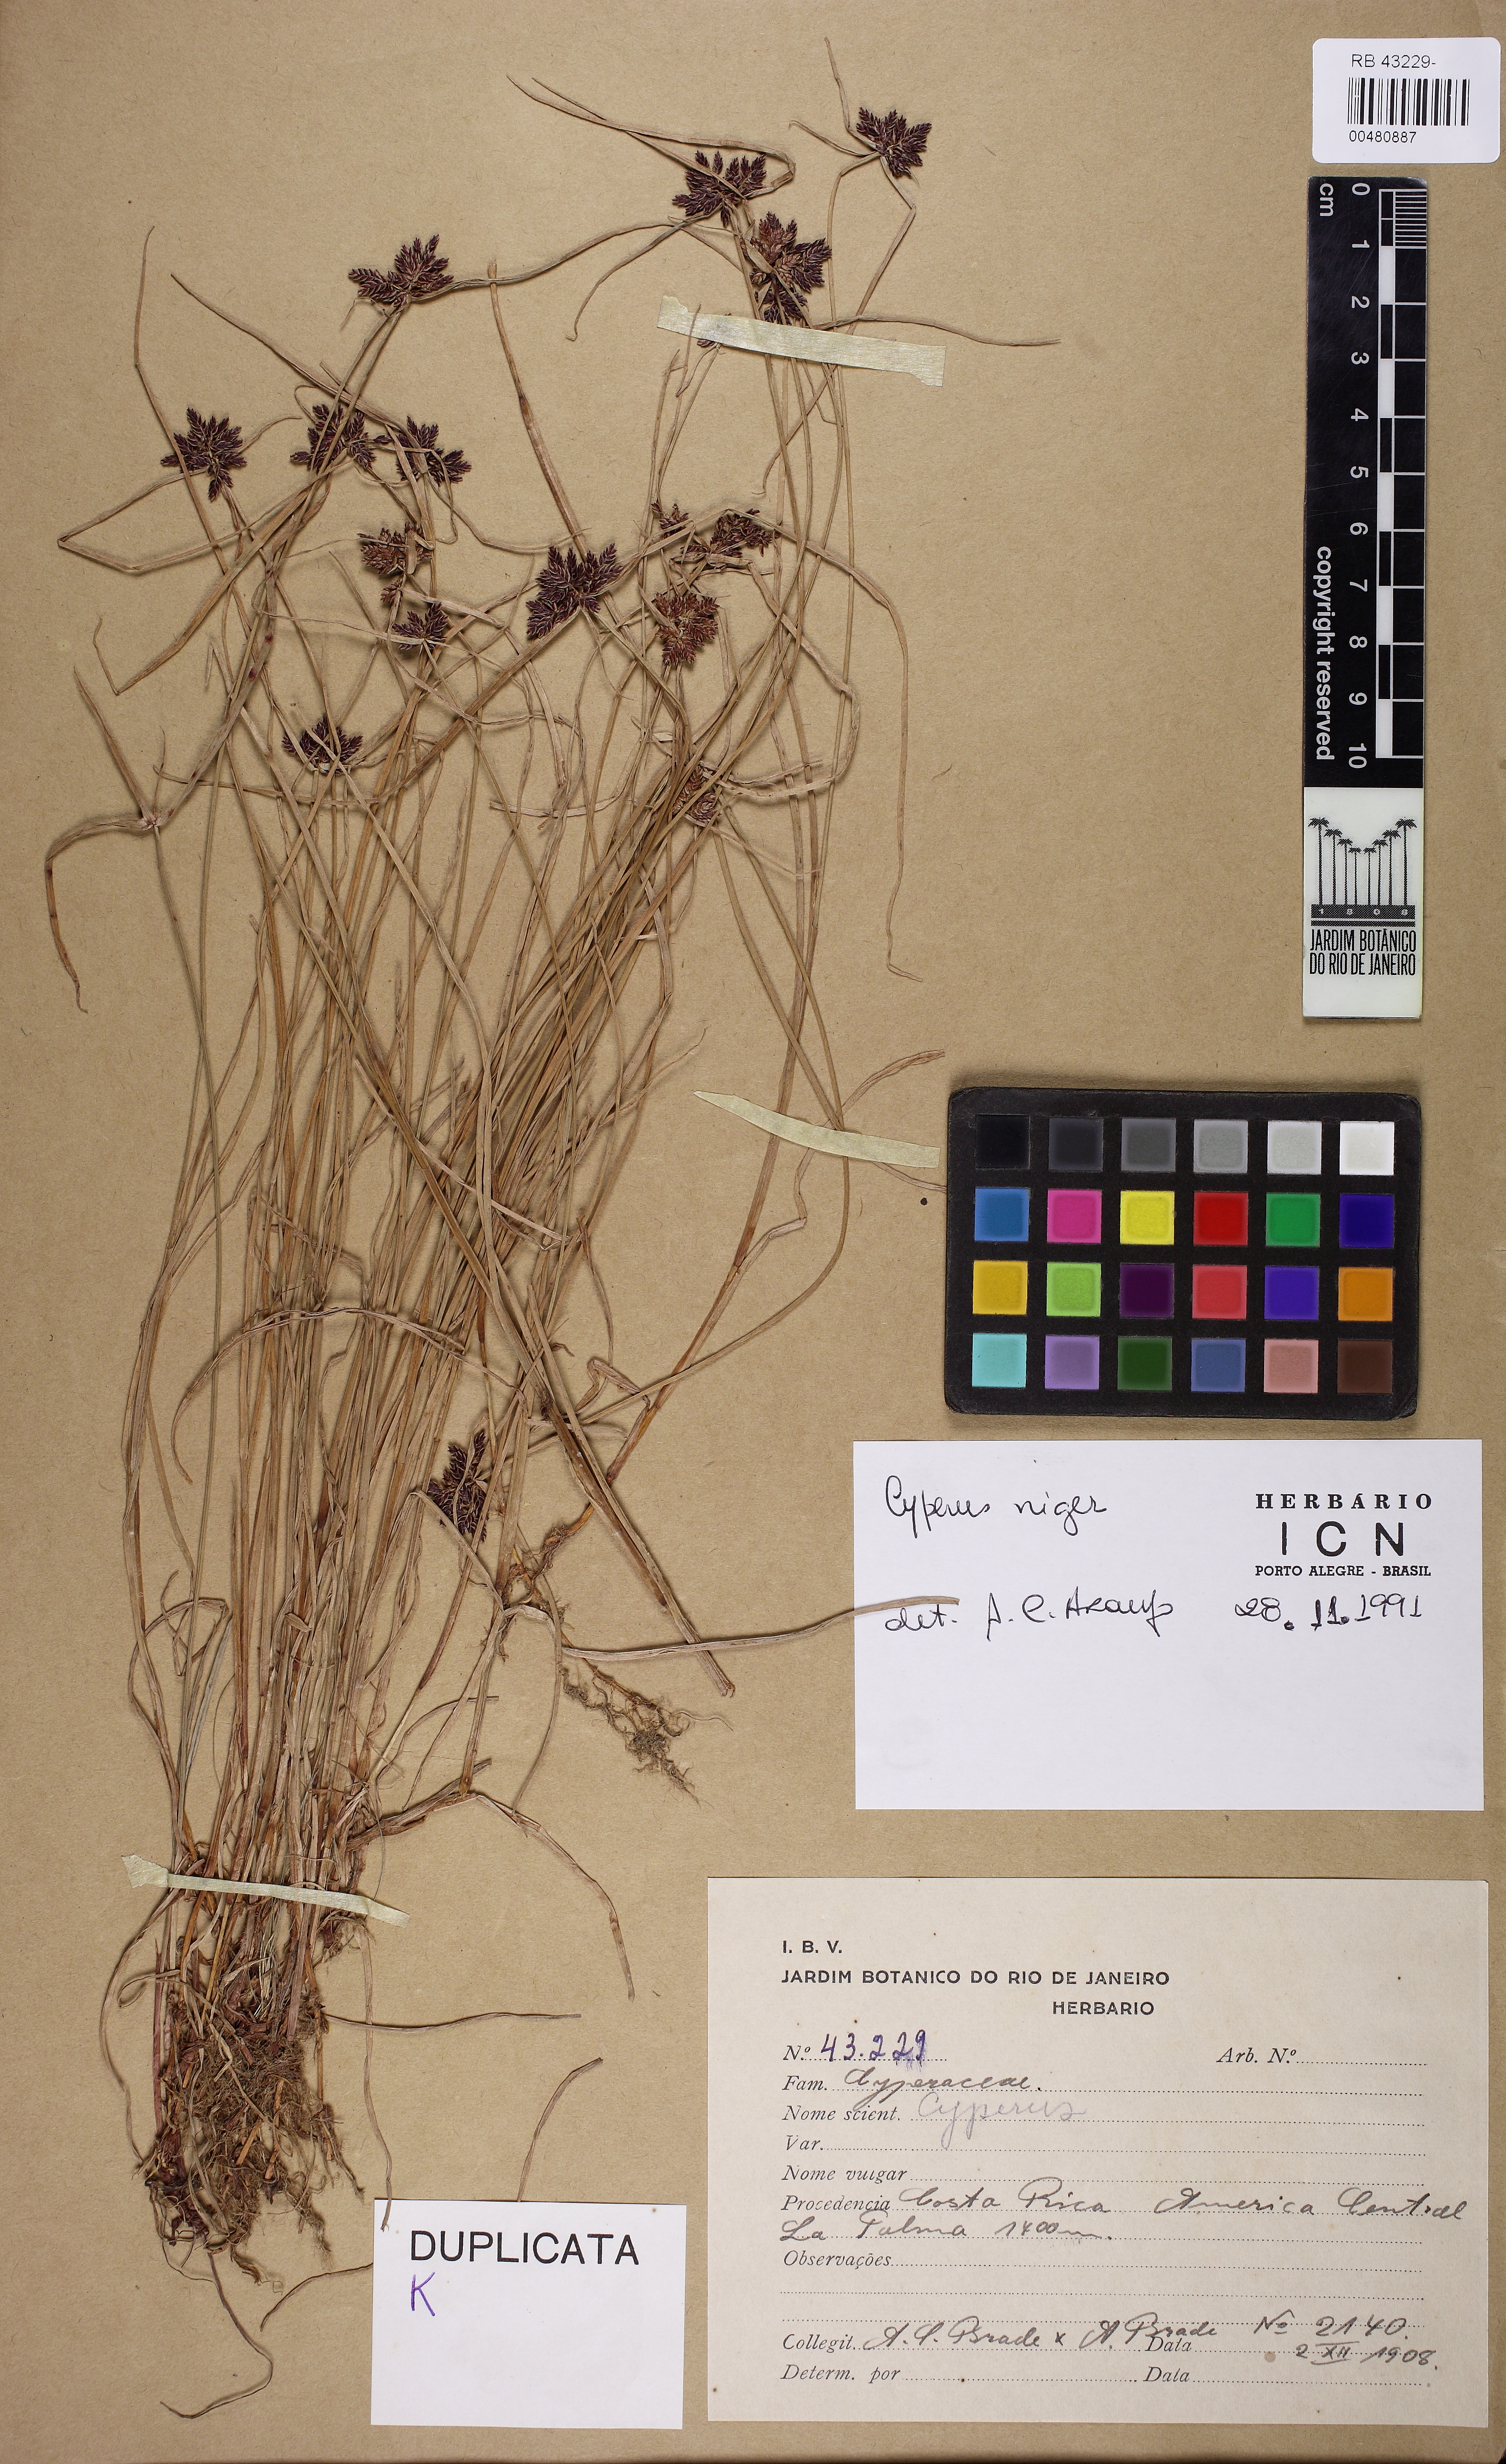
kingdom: Plantae
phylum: Tracheophyta
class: Liliopsida
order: Poales
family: Cyperaceae
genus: Cyperus
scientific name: Cyperus melanostachyus
